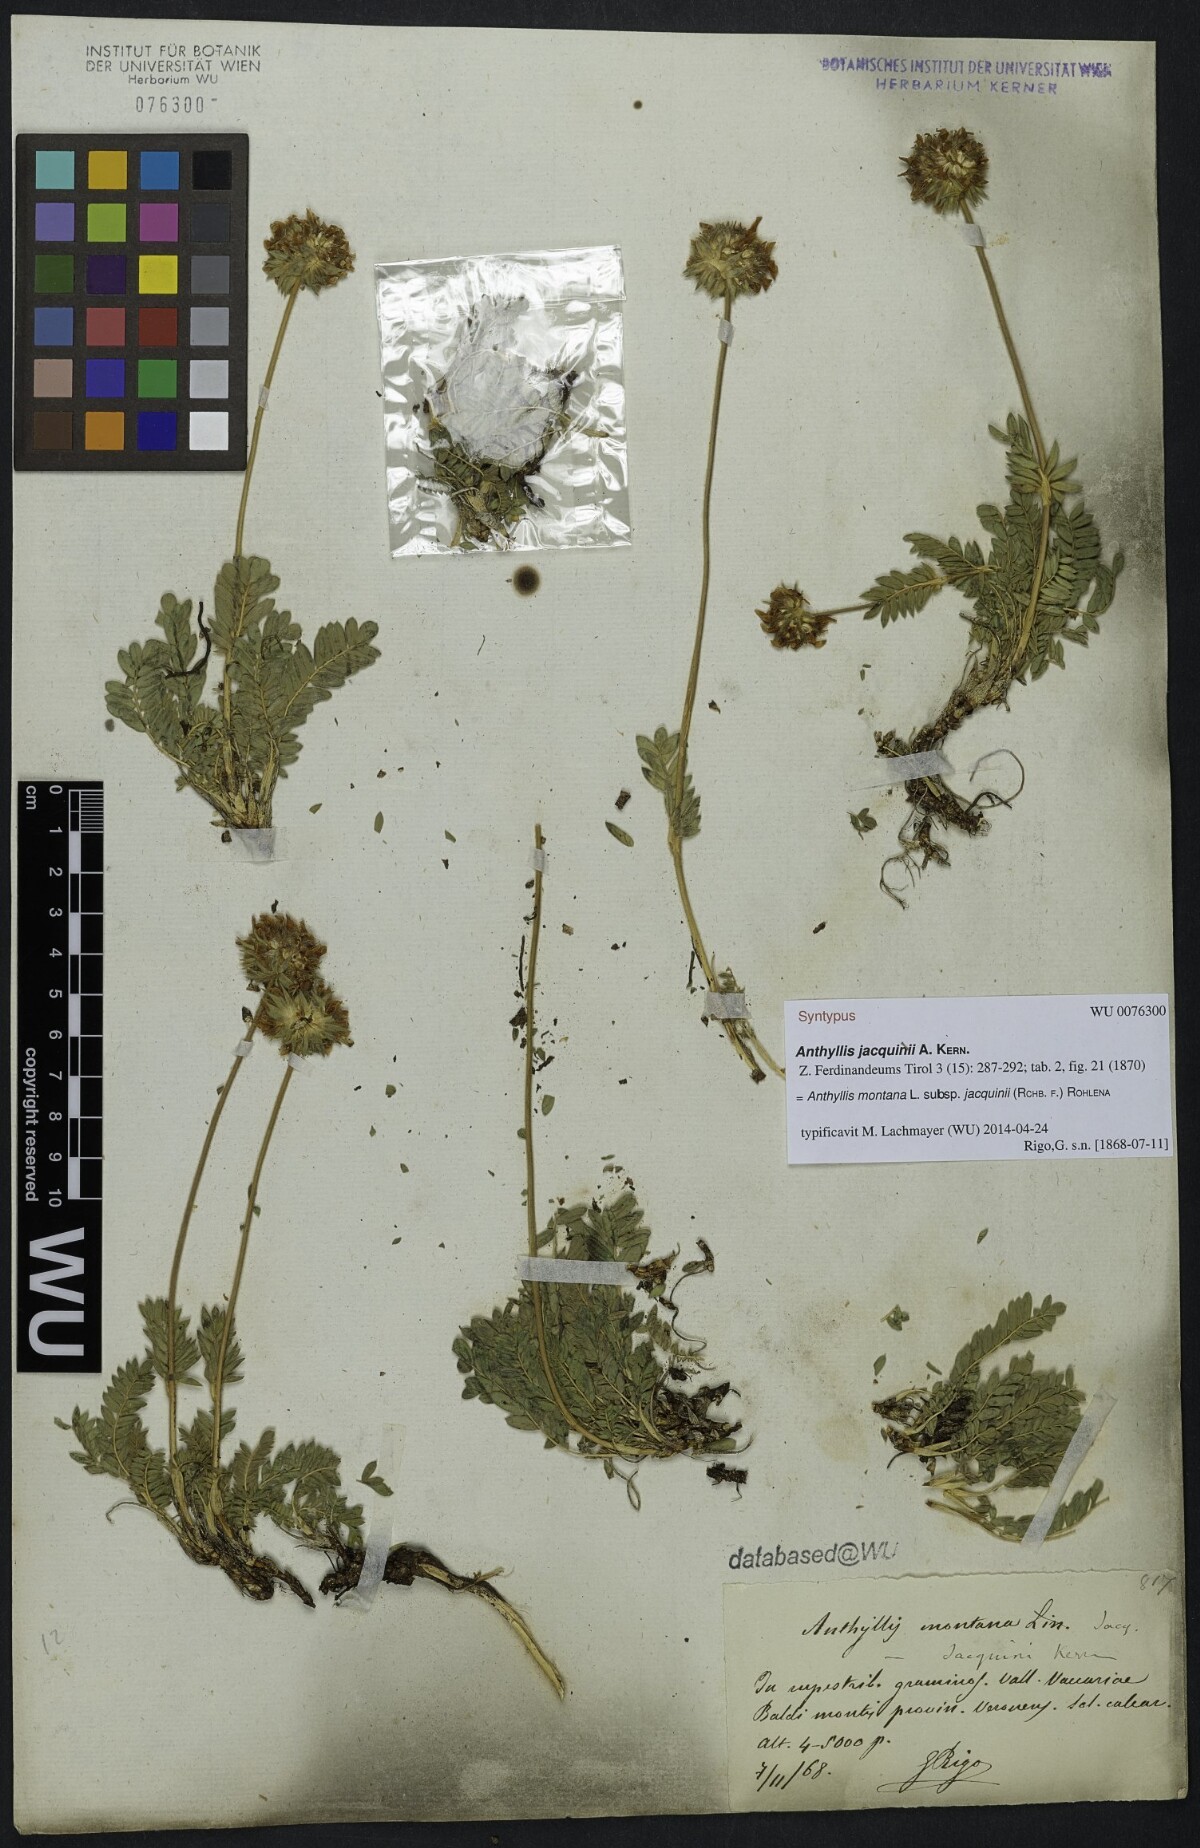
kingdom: Plantae
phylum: Tracheophyta
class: Magnoliopsida
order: Fabales
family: Fabaceae
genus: Anthyllis
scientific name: Anthyllis montana
